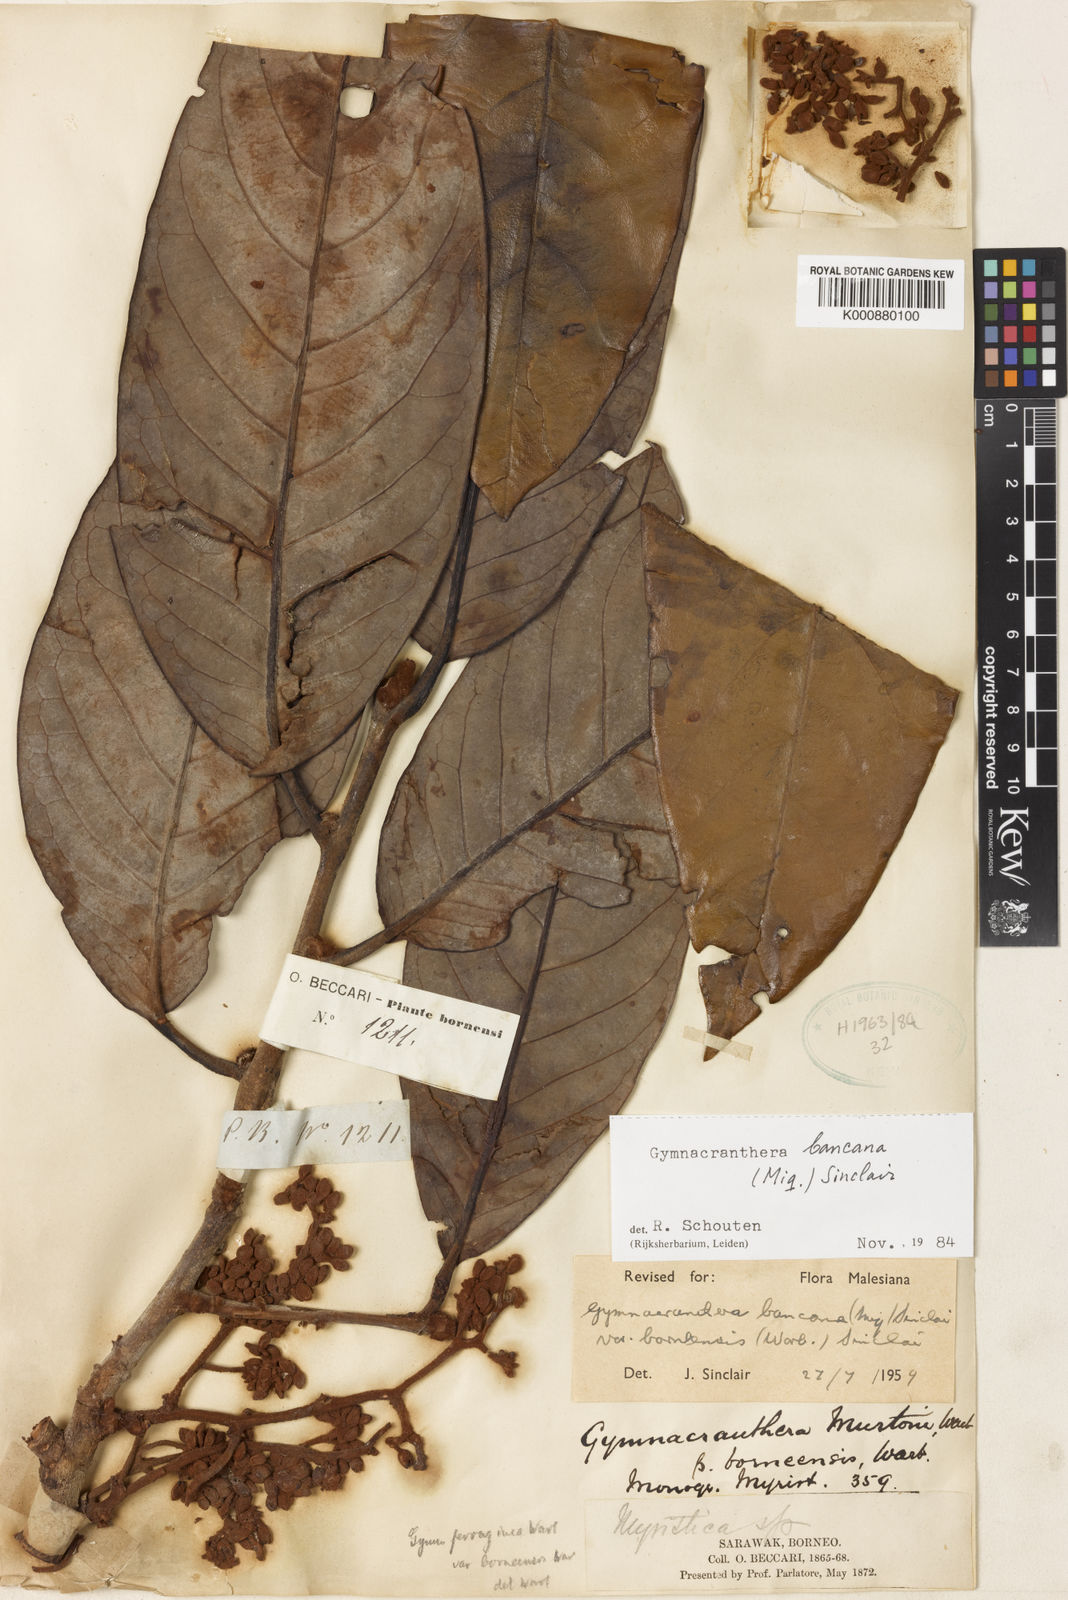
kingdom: Plantae
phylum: Tracheophyta
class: Magnoliopsida
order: Magnoliales
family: Myristicaceae
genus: Gymnacranthera
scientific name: Gymnacranthera bancana
